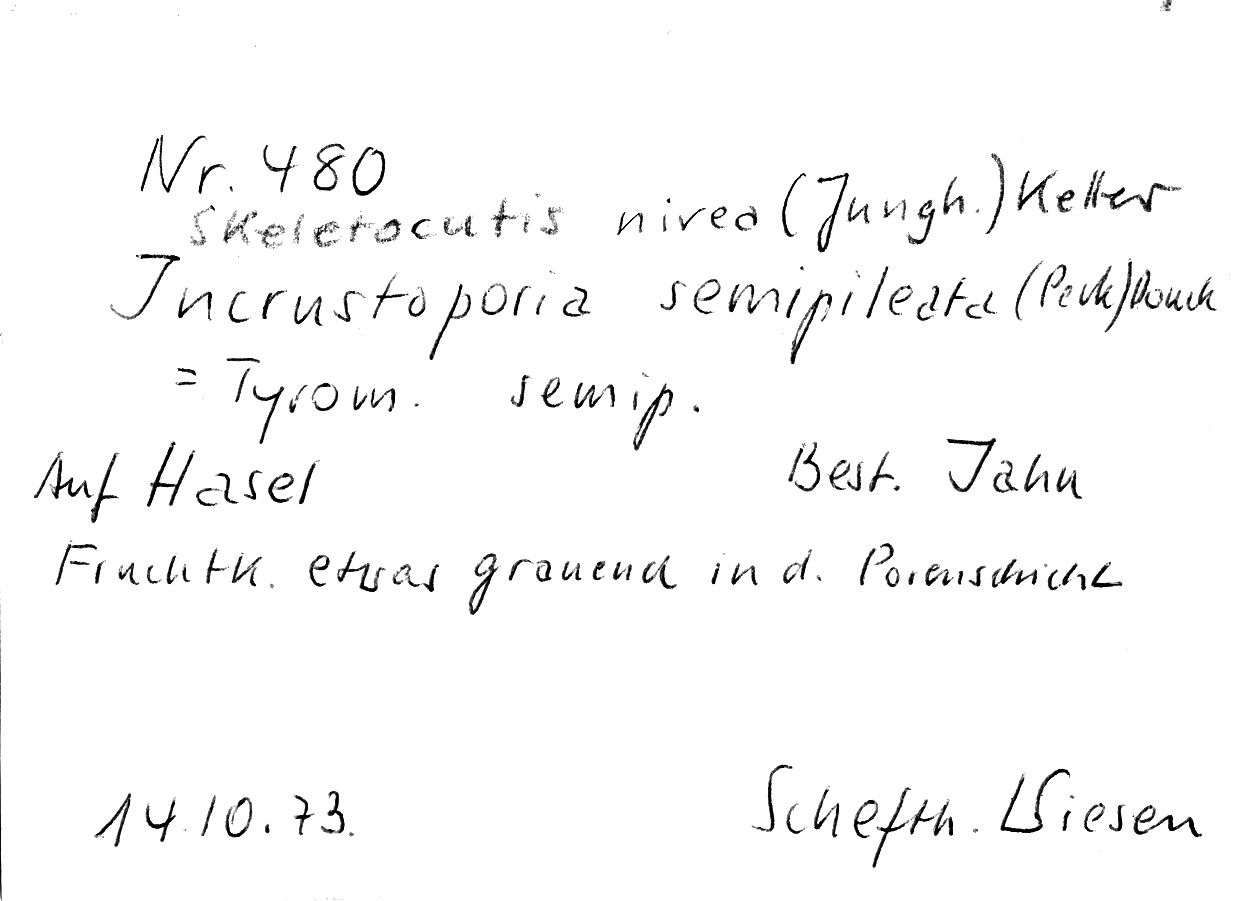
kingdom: Fungi
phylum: Basidiomycota
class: Agaricomycetes
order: Polyporales
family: Incrustoporiaceae
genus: Skeletocutis
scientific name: Skeletocutis nivea
